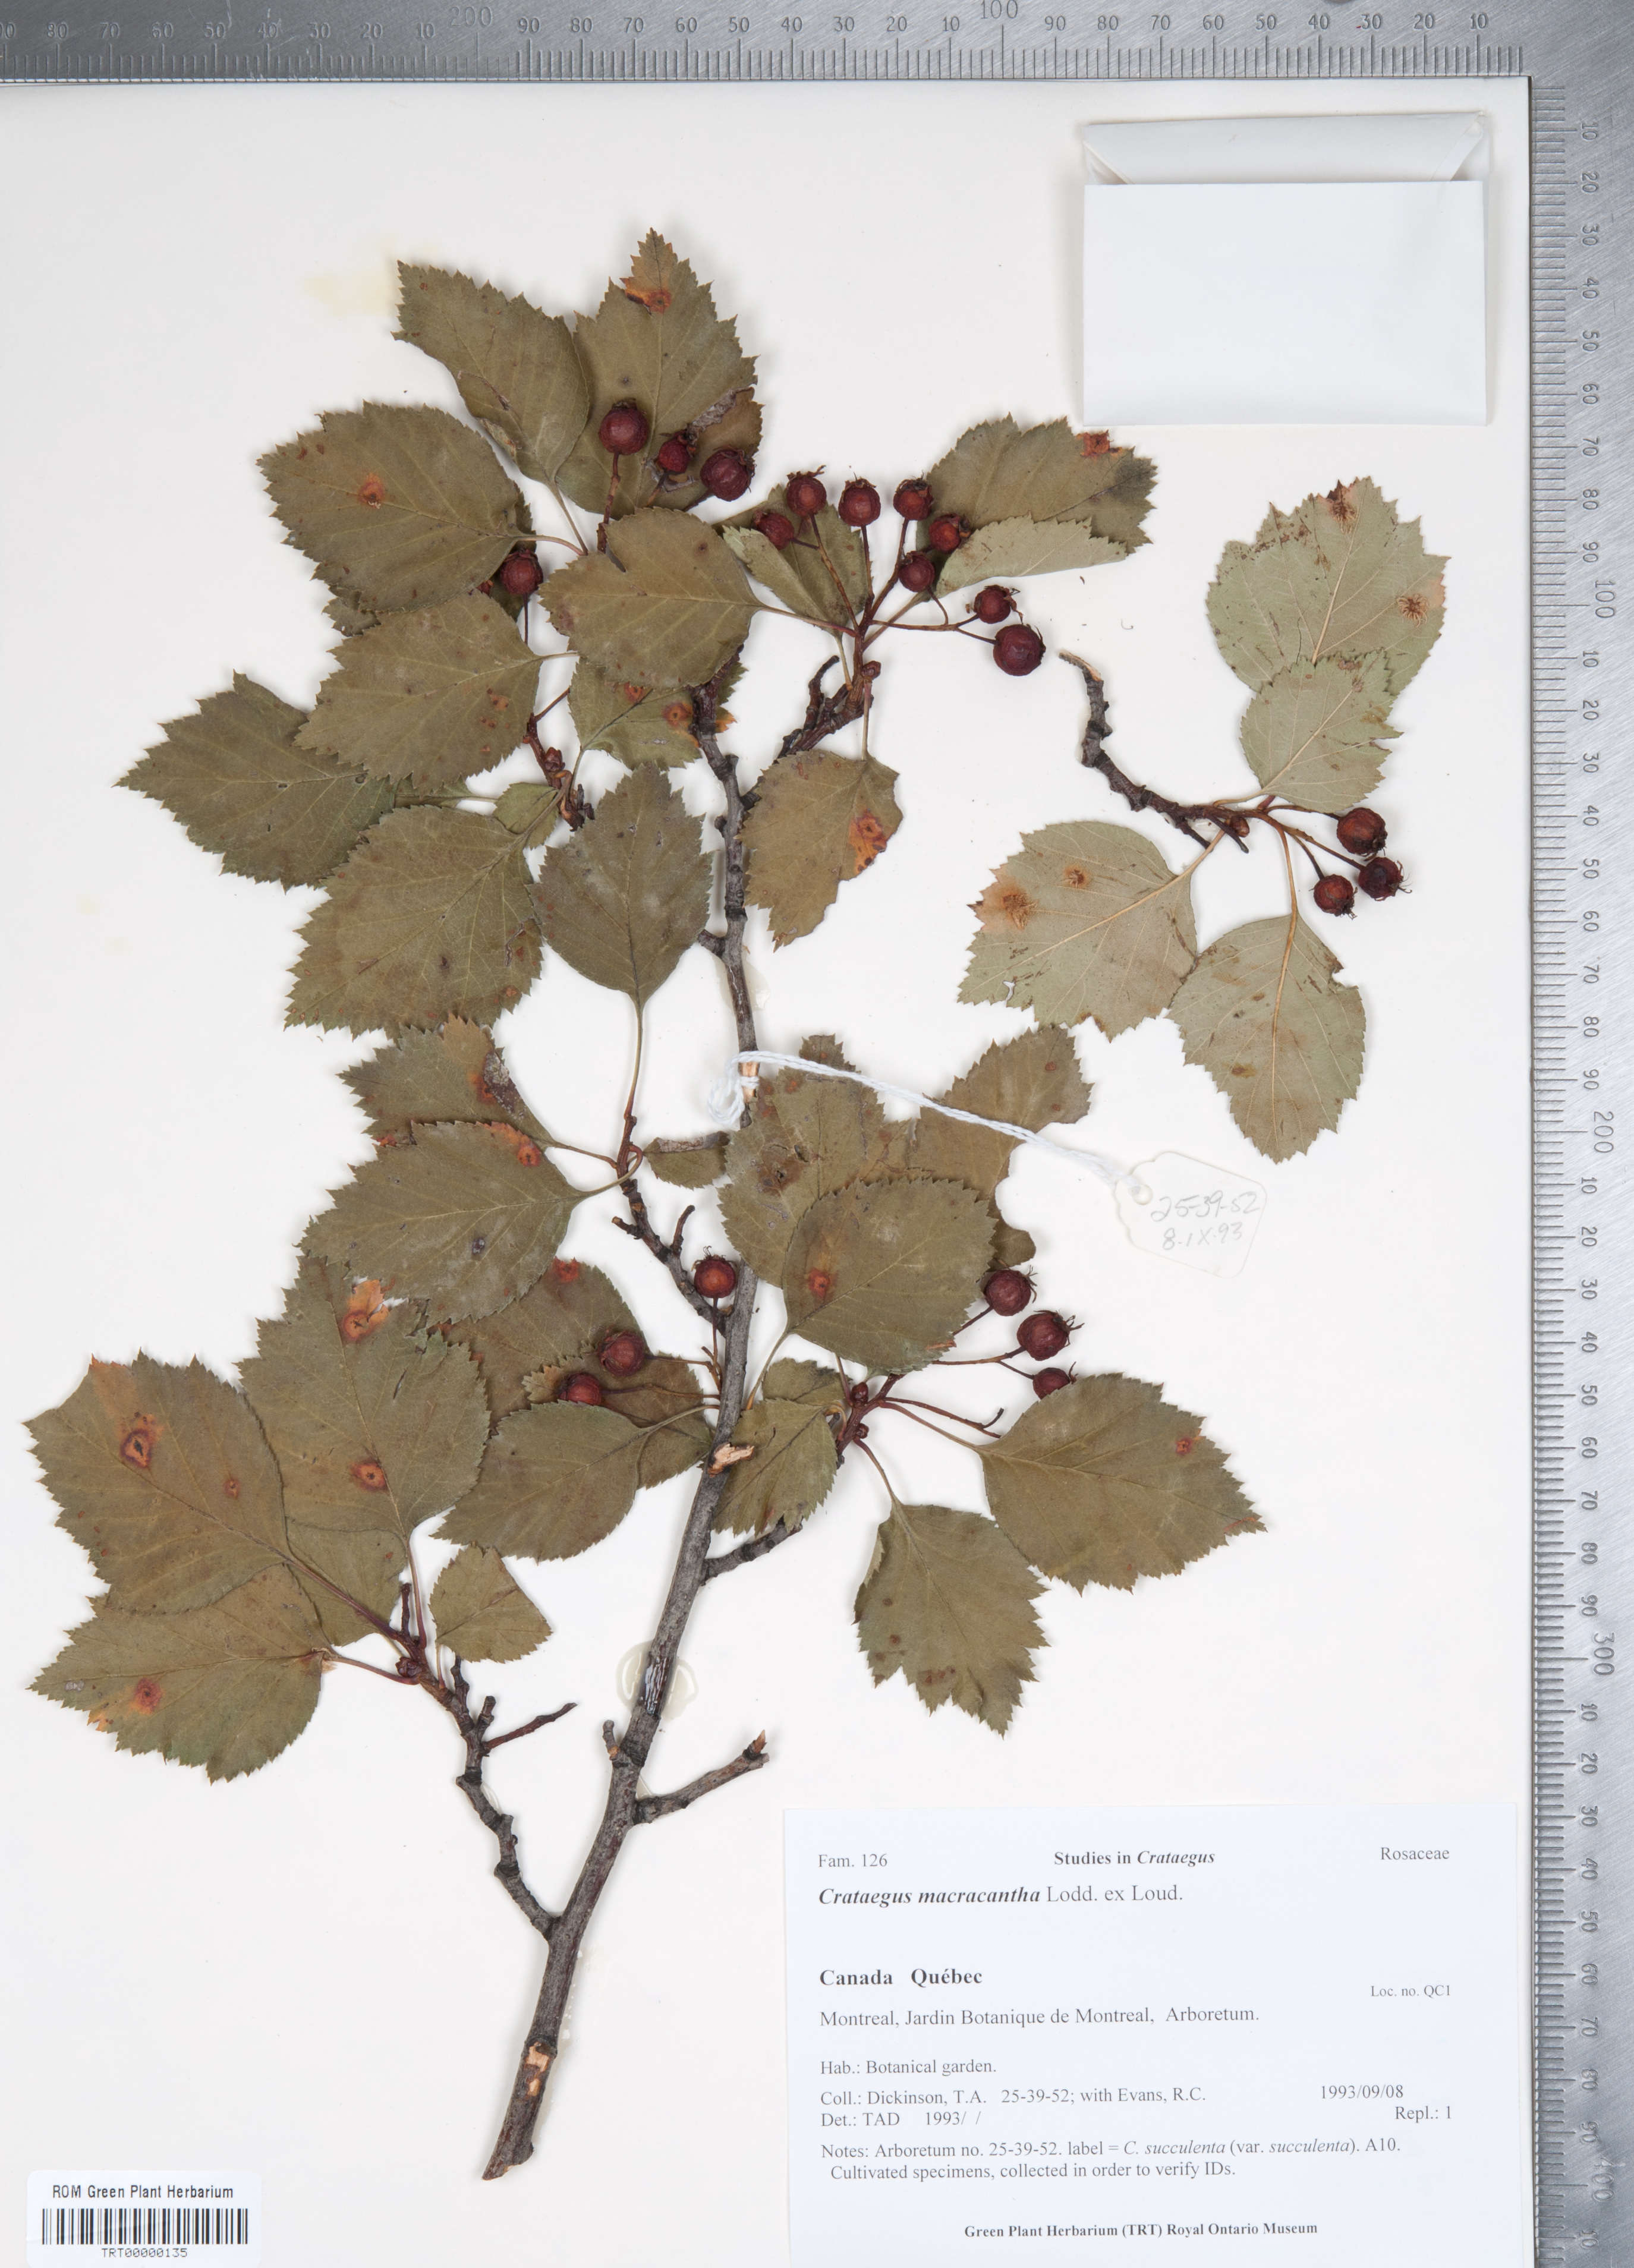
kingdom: Plantae
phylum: Tracheophyta
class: Magnoliopsida
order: Rosales
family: Rosaceae
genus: Crataegus
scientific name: Crataegus macracantha
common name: Large-thorn hawthorn
